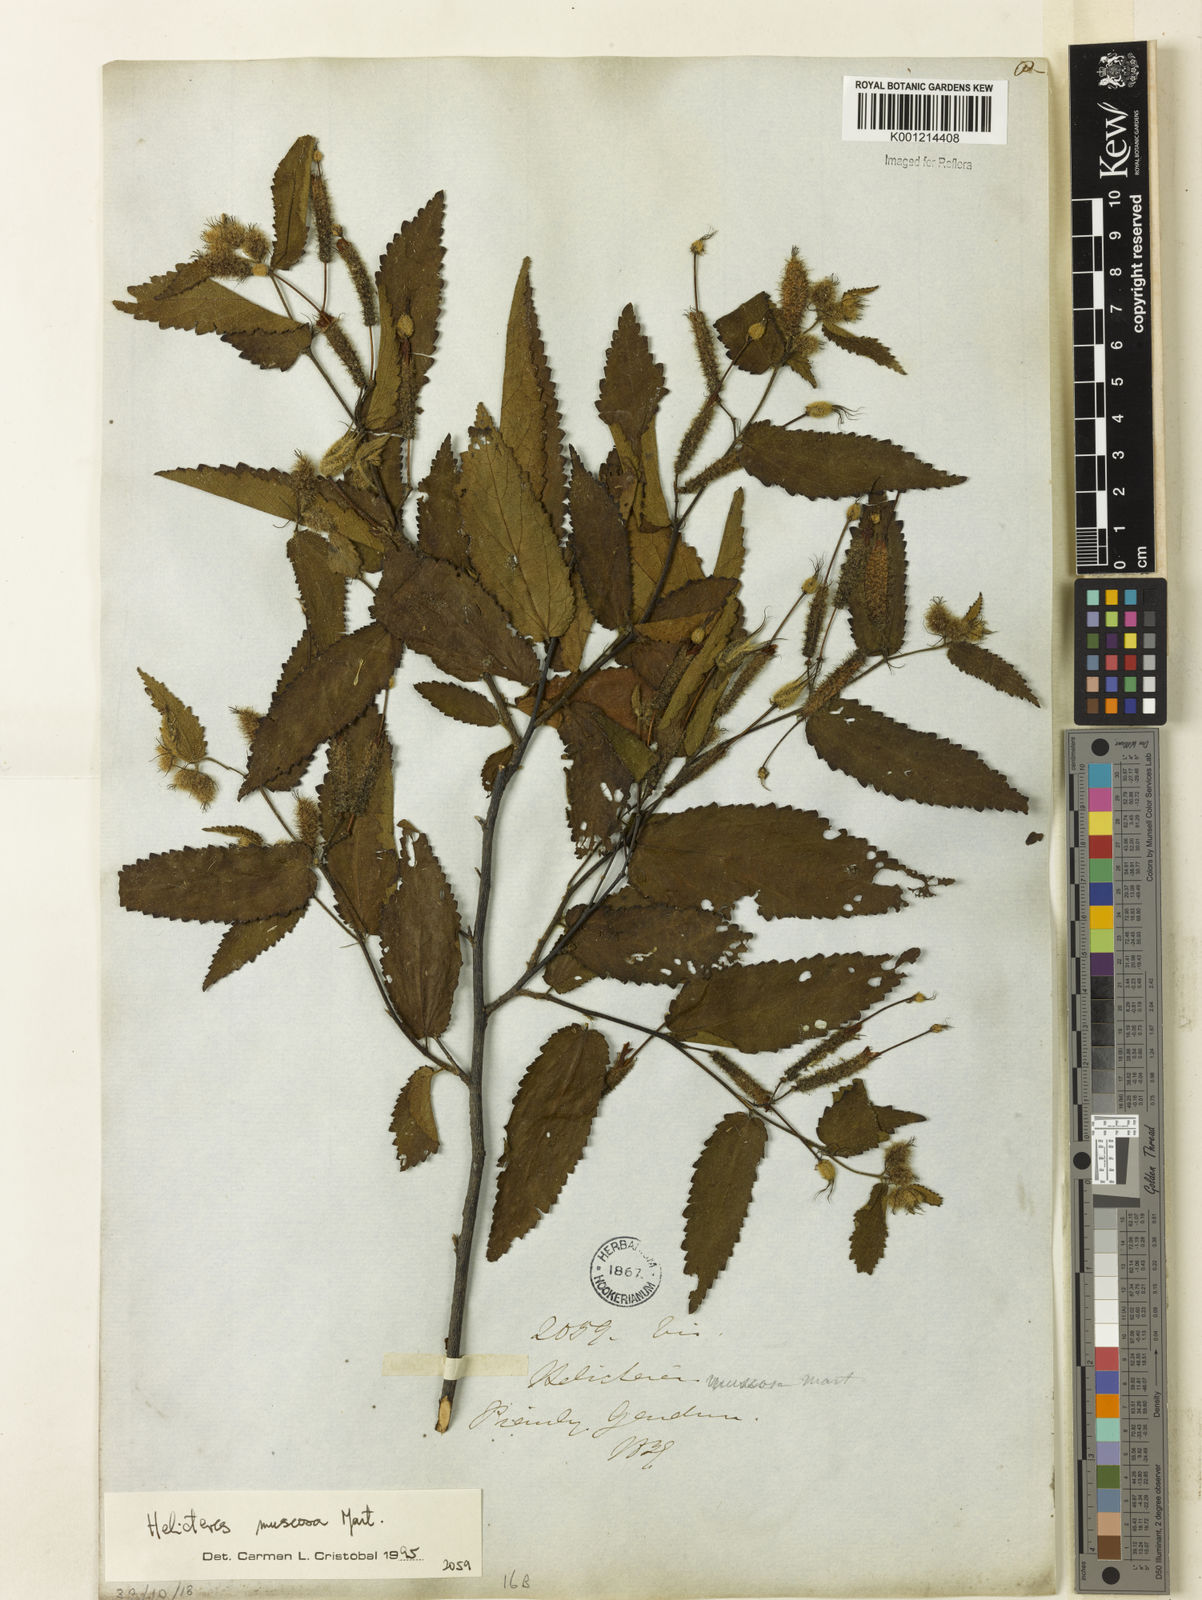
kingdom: Plantae
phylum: Tracheophyta
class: Magnoliopsida
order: Malvales
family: Malvaceae
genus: Helicteres
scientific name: Helicteres muscosa
